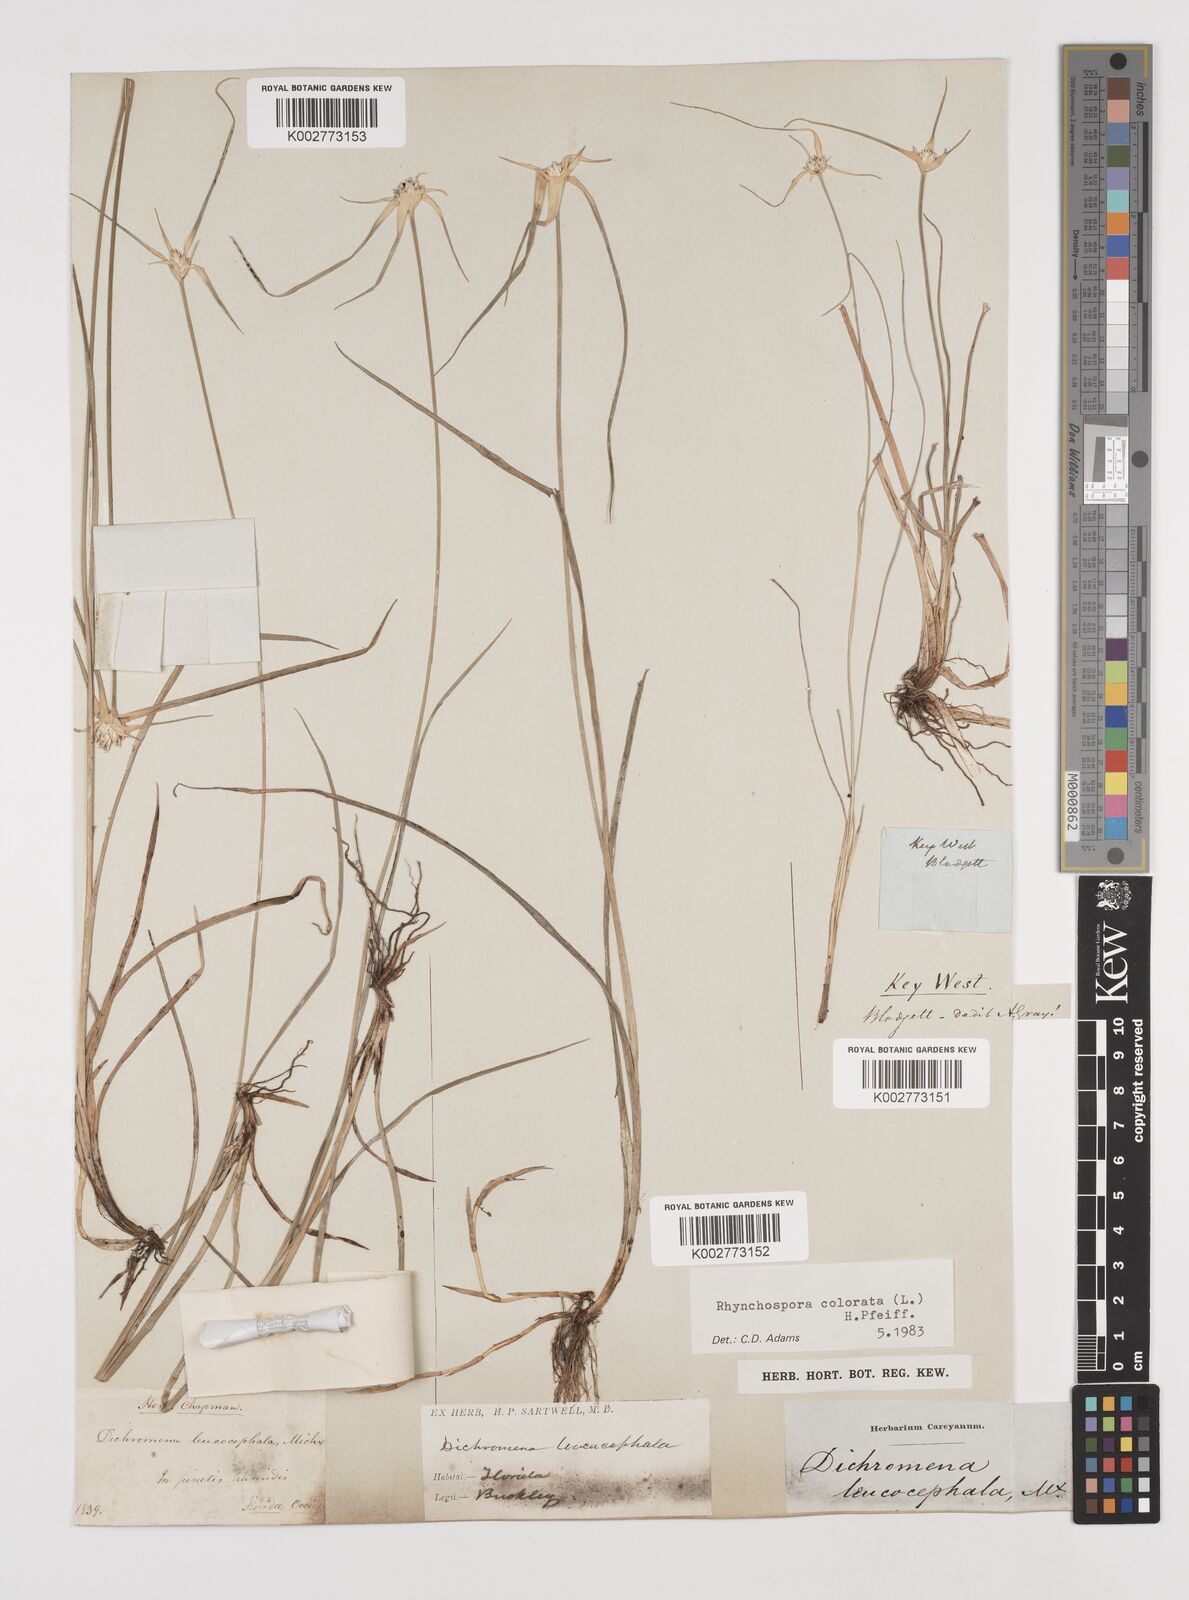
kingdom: Plantae
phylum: Tracheophyta
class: Liliopsida
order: Poales
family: Cyperaceae
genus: Rhynchospora
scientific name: Rhynchospora colorata
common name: Star sedge
